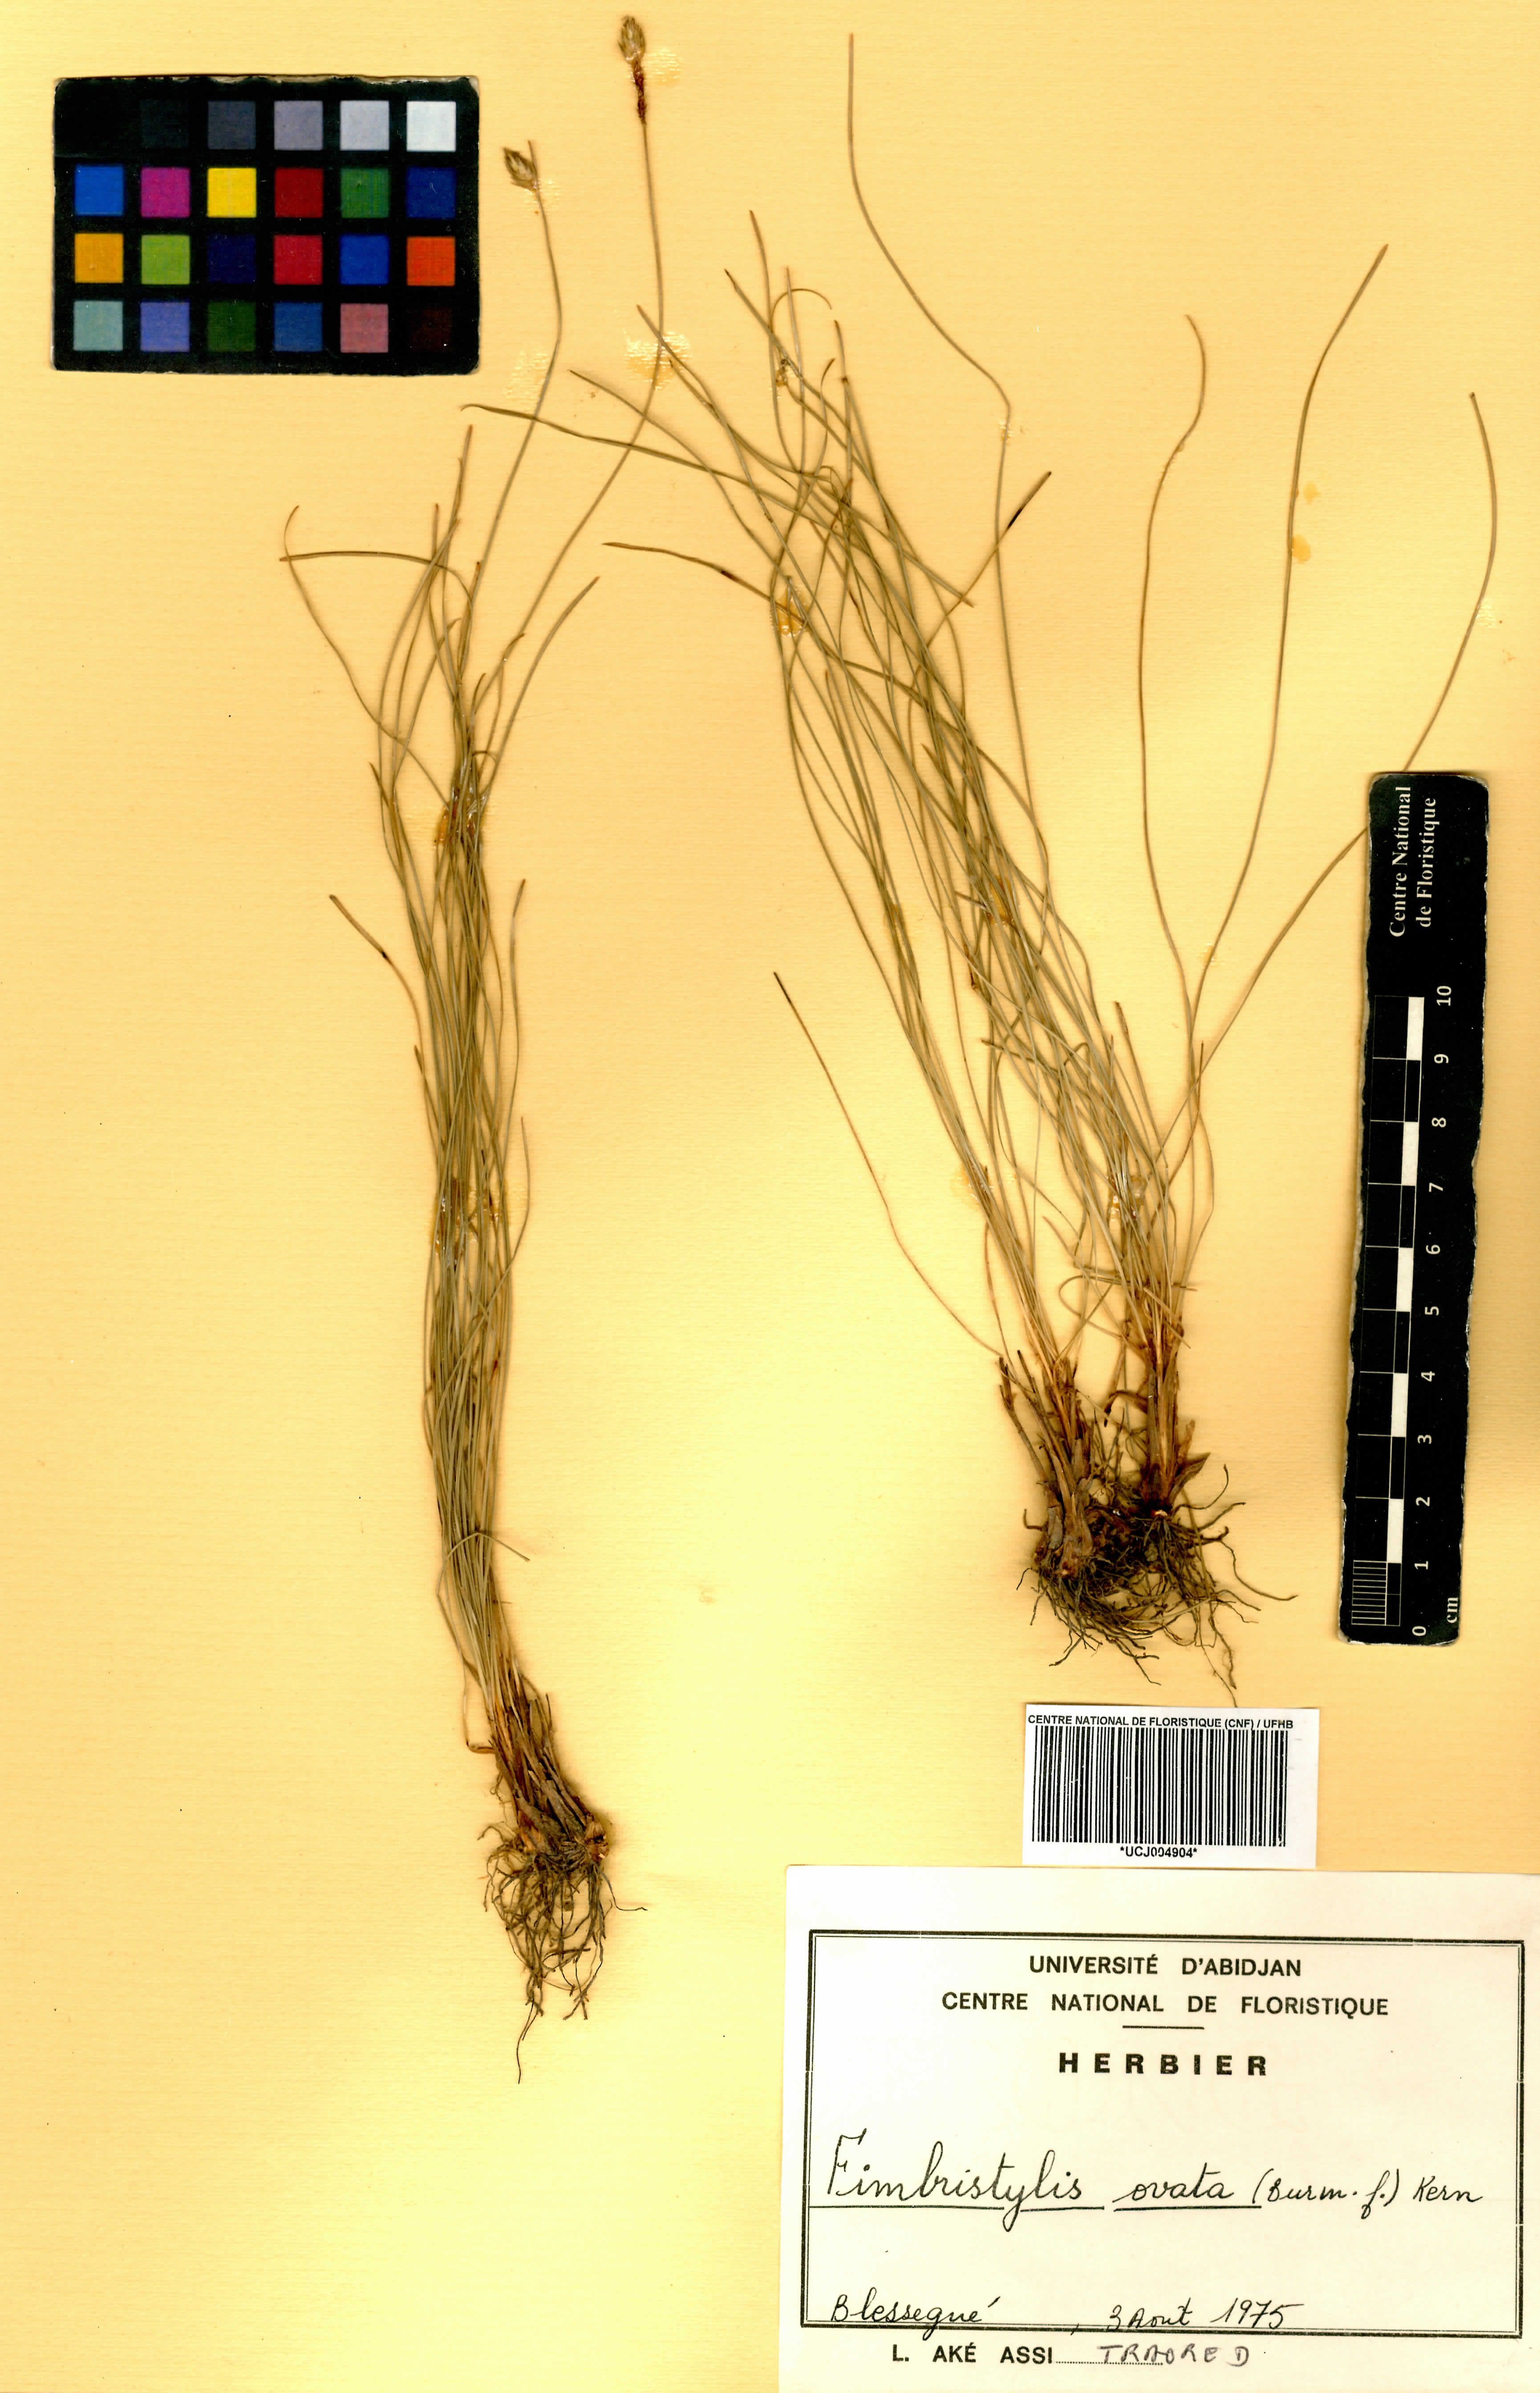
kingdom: Plantae
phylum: Tracheophyta
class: Liliopsida
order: Poales
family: Cyperaceae
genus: Abildgaardia
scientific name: Abildgaardia ovata
